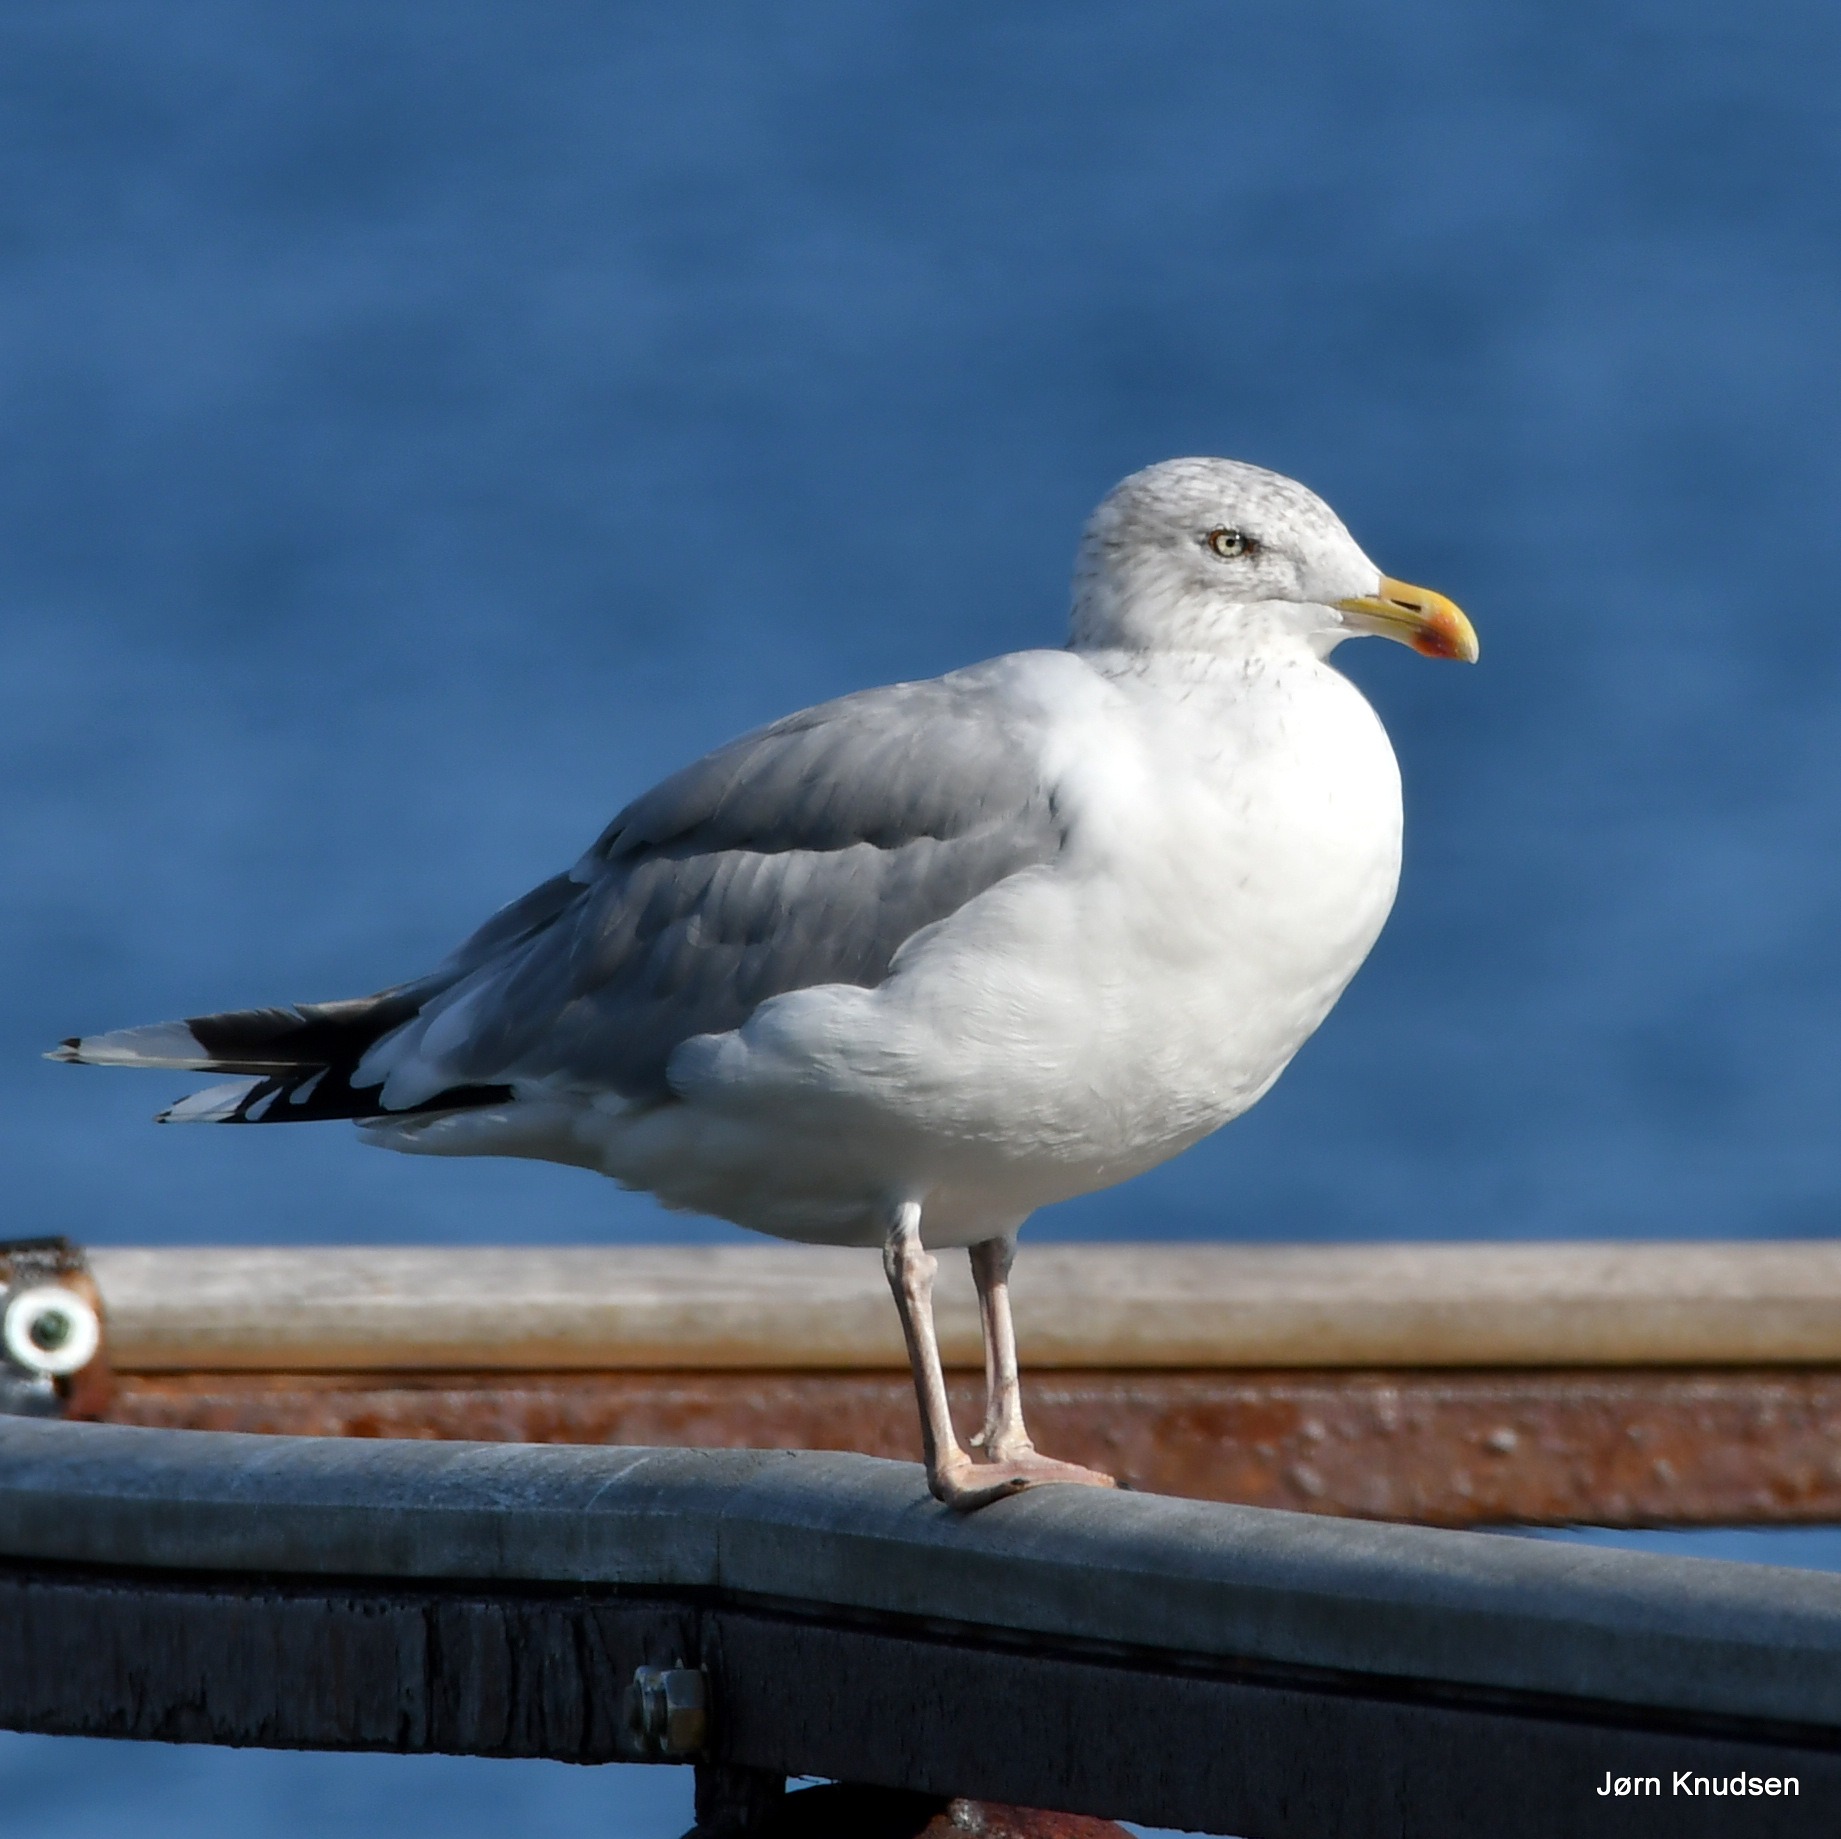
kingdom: Animalia
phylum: Chordata
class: Aves
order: Charadriiformes
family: Laridae
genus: Larus
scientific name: Larus argentatus
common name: Sølvmåge
